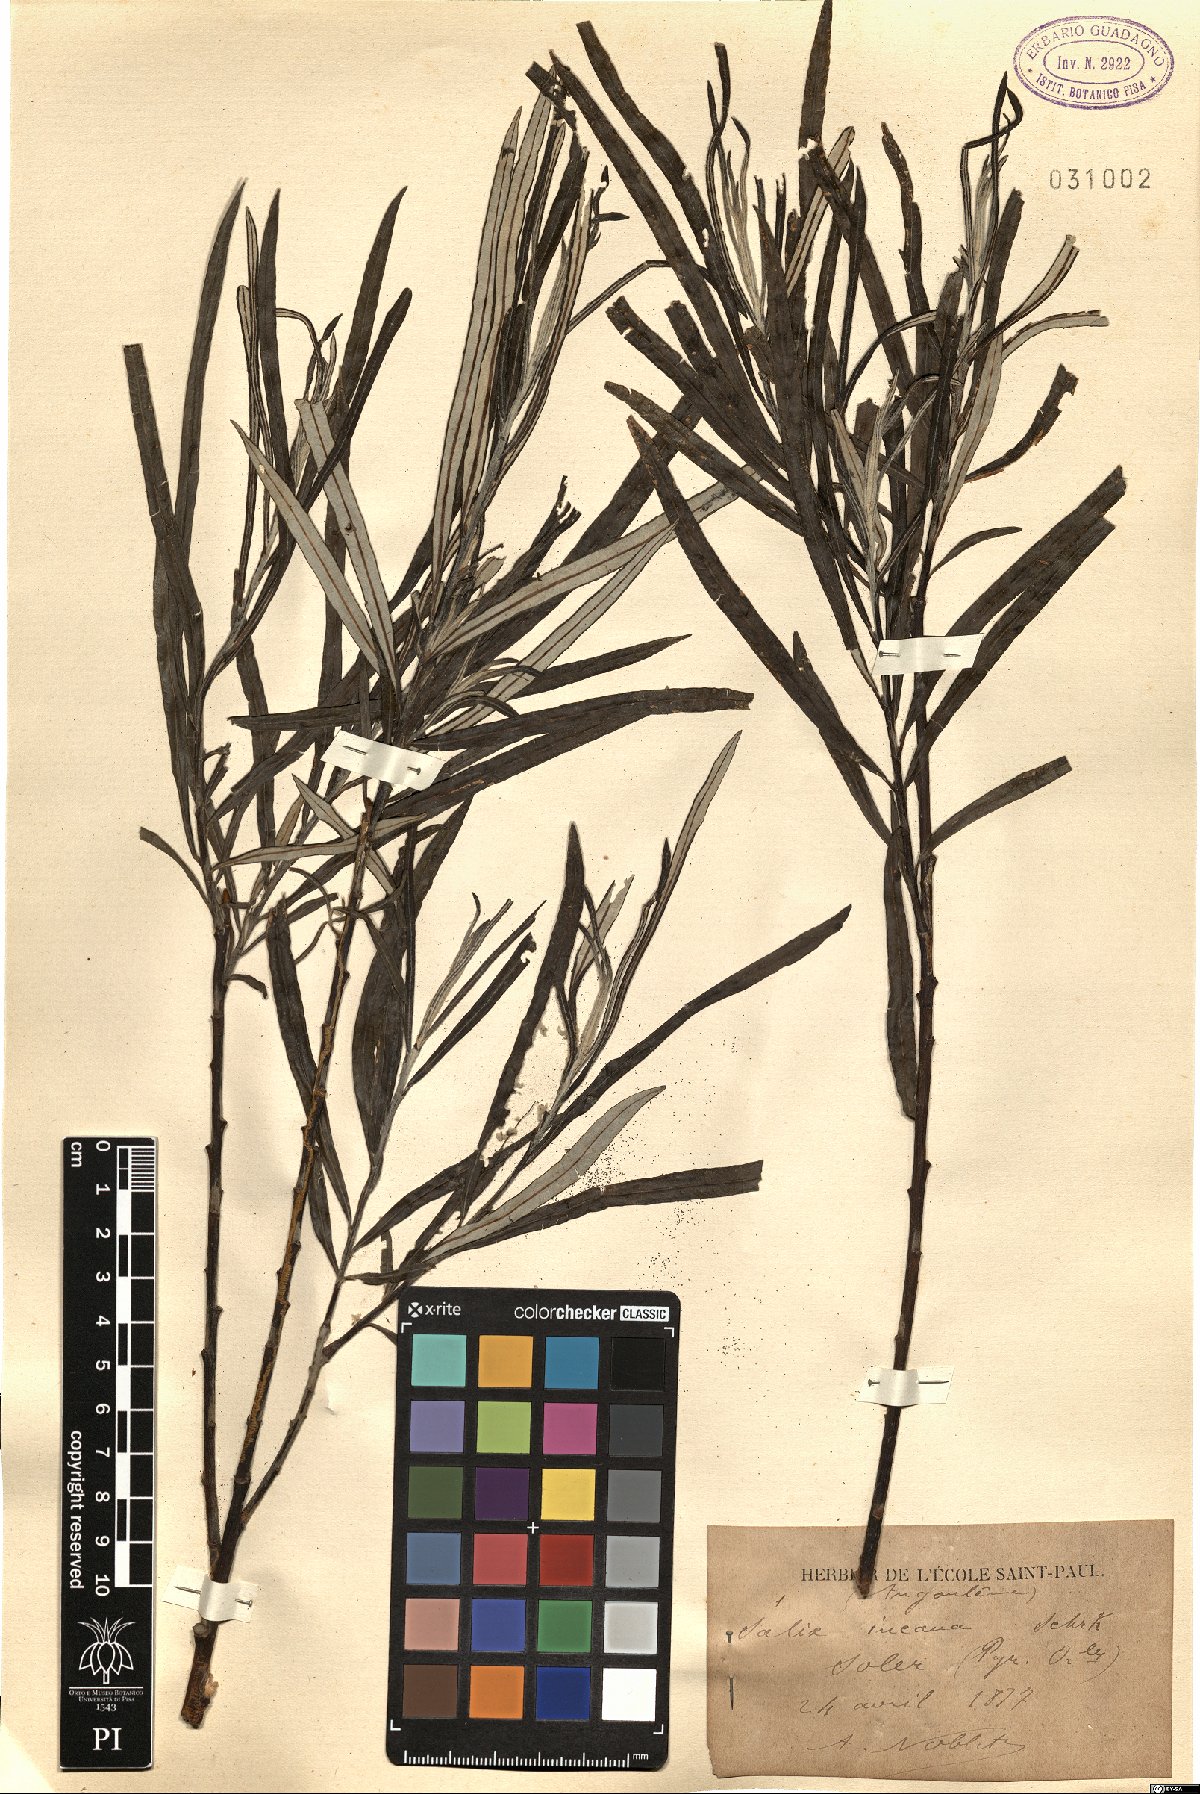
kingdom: Plantae
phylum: Tracheophyta
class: Magnoliopsida
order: Malpighiales
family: Salicaceae
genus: Salix
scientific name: Salix eleagnos
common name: Elaeagnus willow
